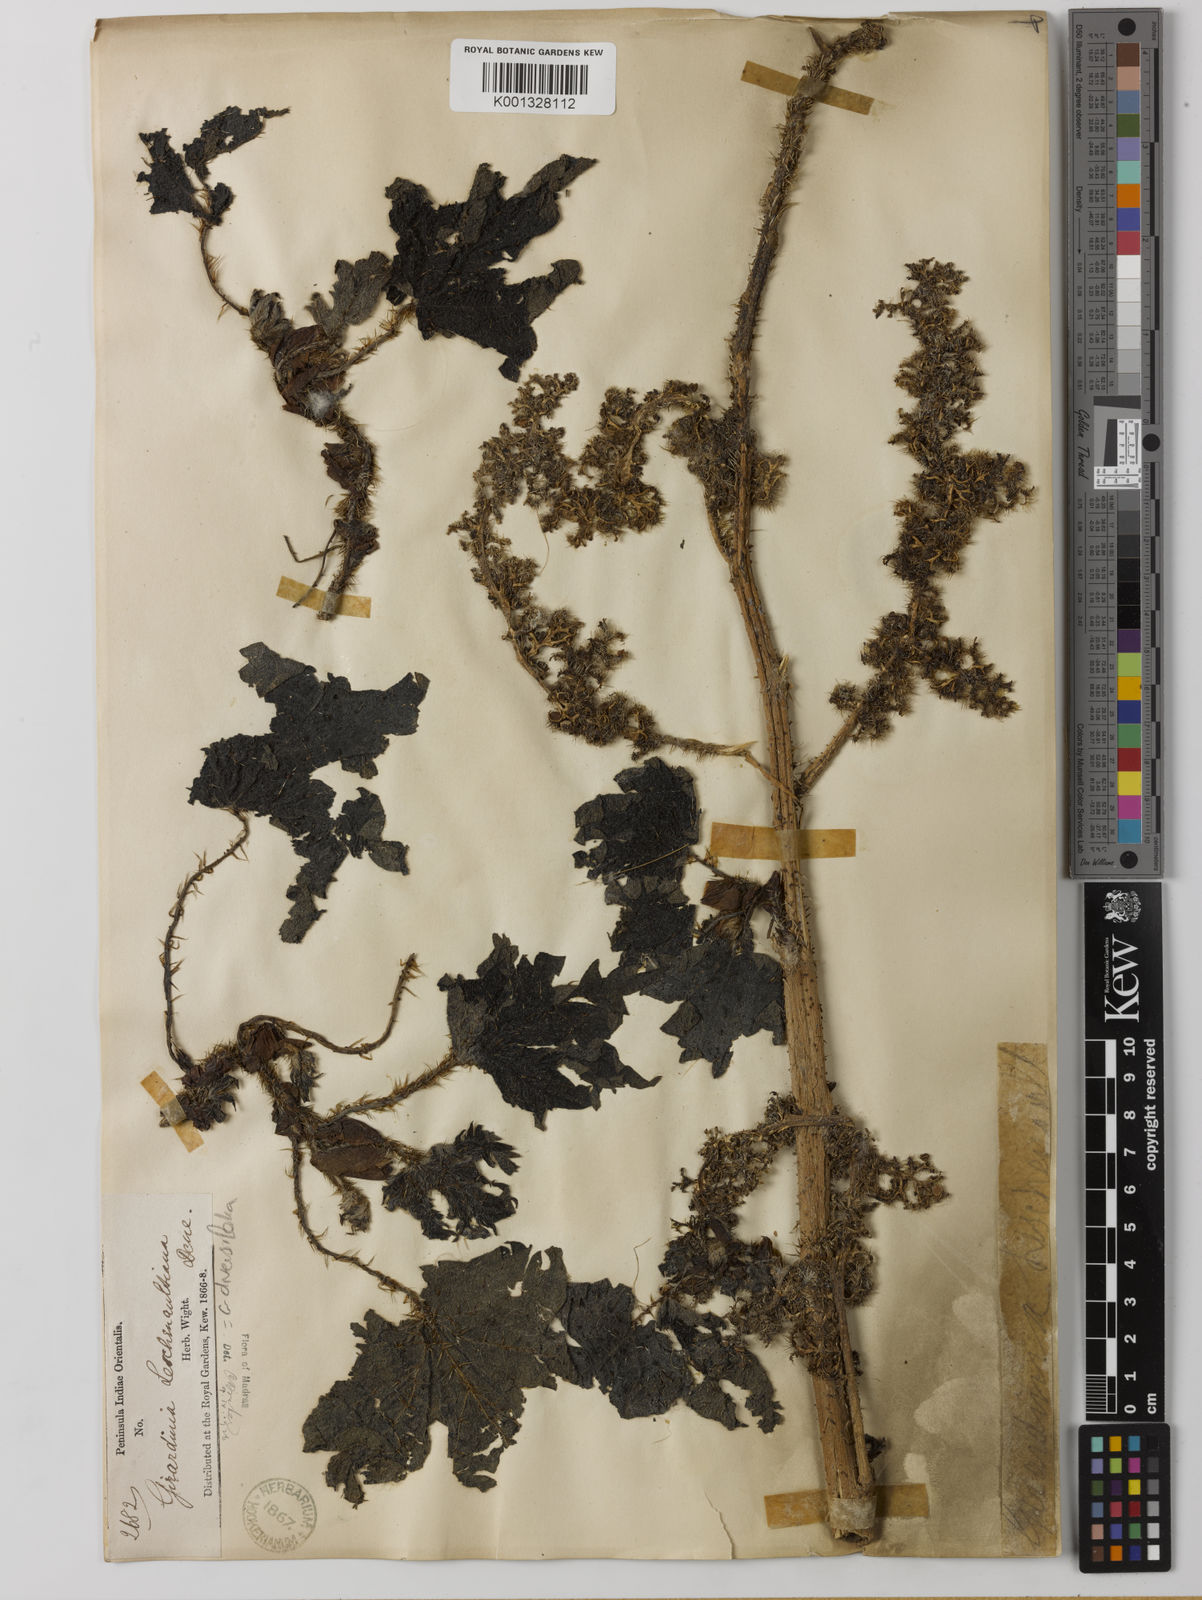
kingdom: Plantae
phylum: Tracheophyta
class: Magnoliopsida
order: Rosales
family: Urticaceae
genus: Girardinia
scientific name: Girardinia diversifolia
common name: Himalayan-nettle
